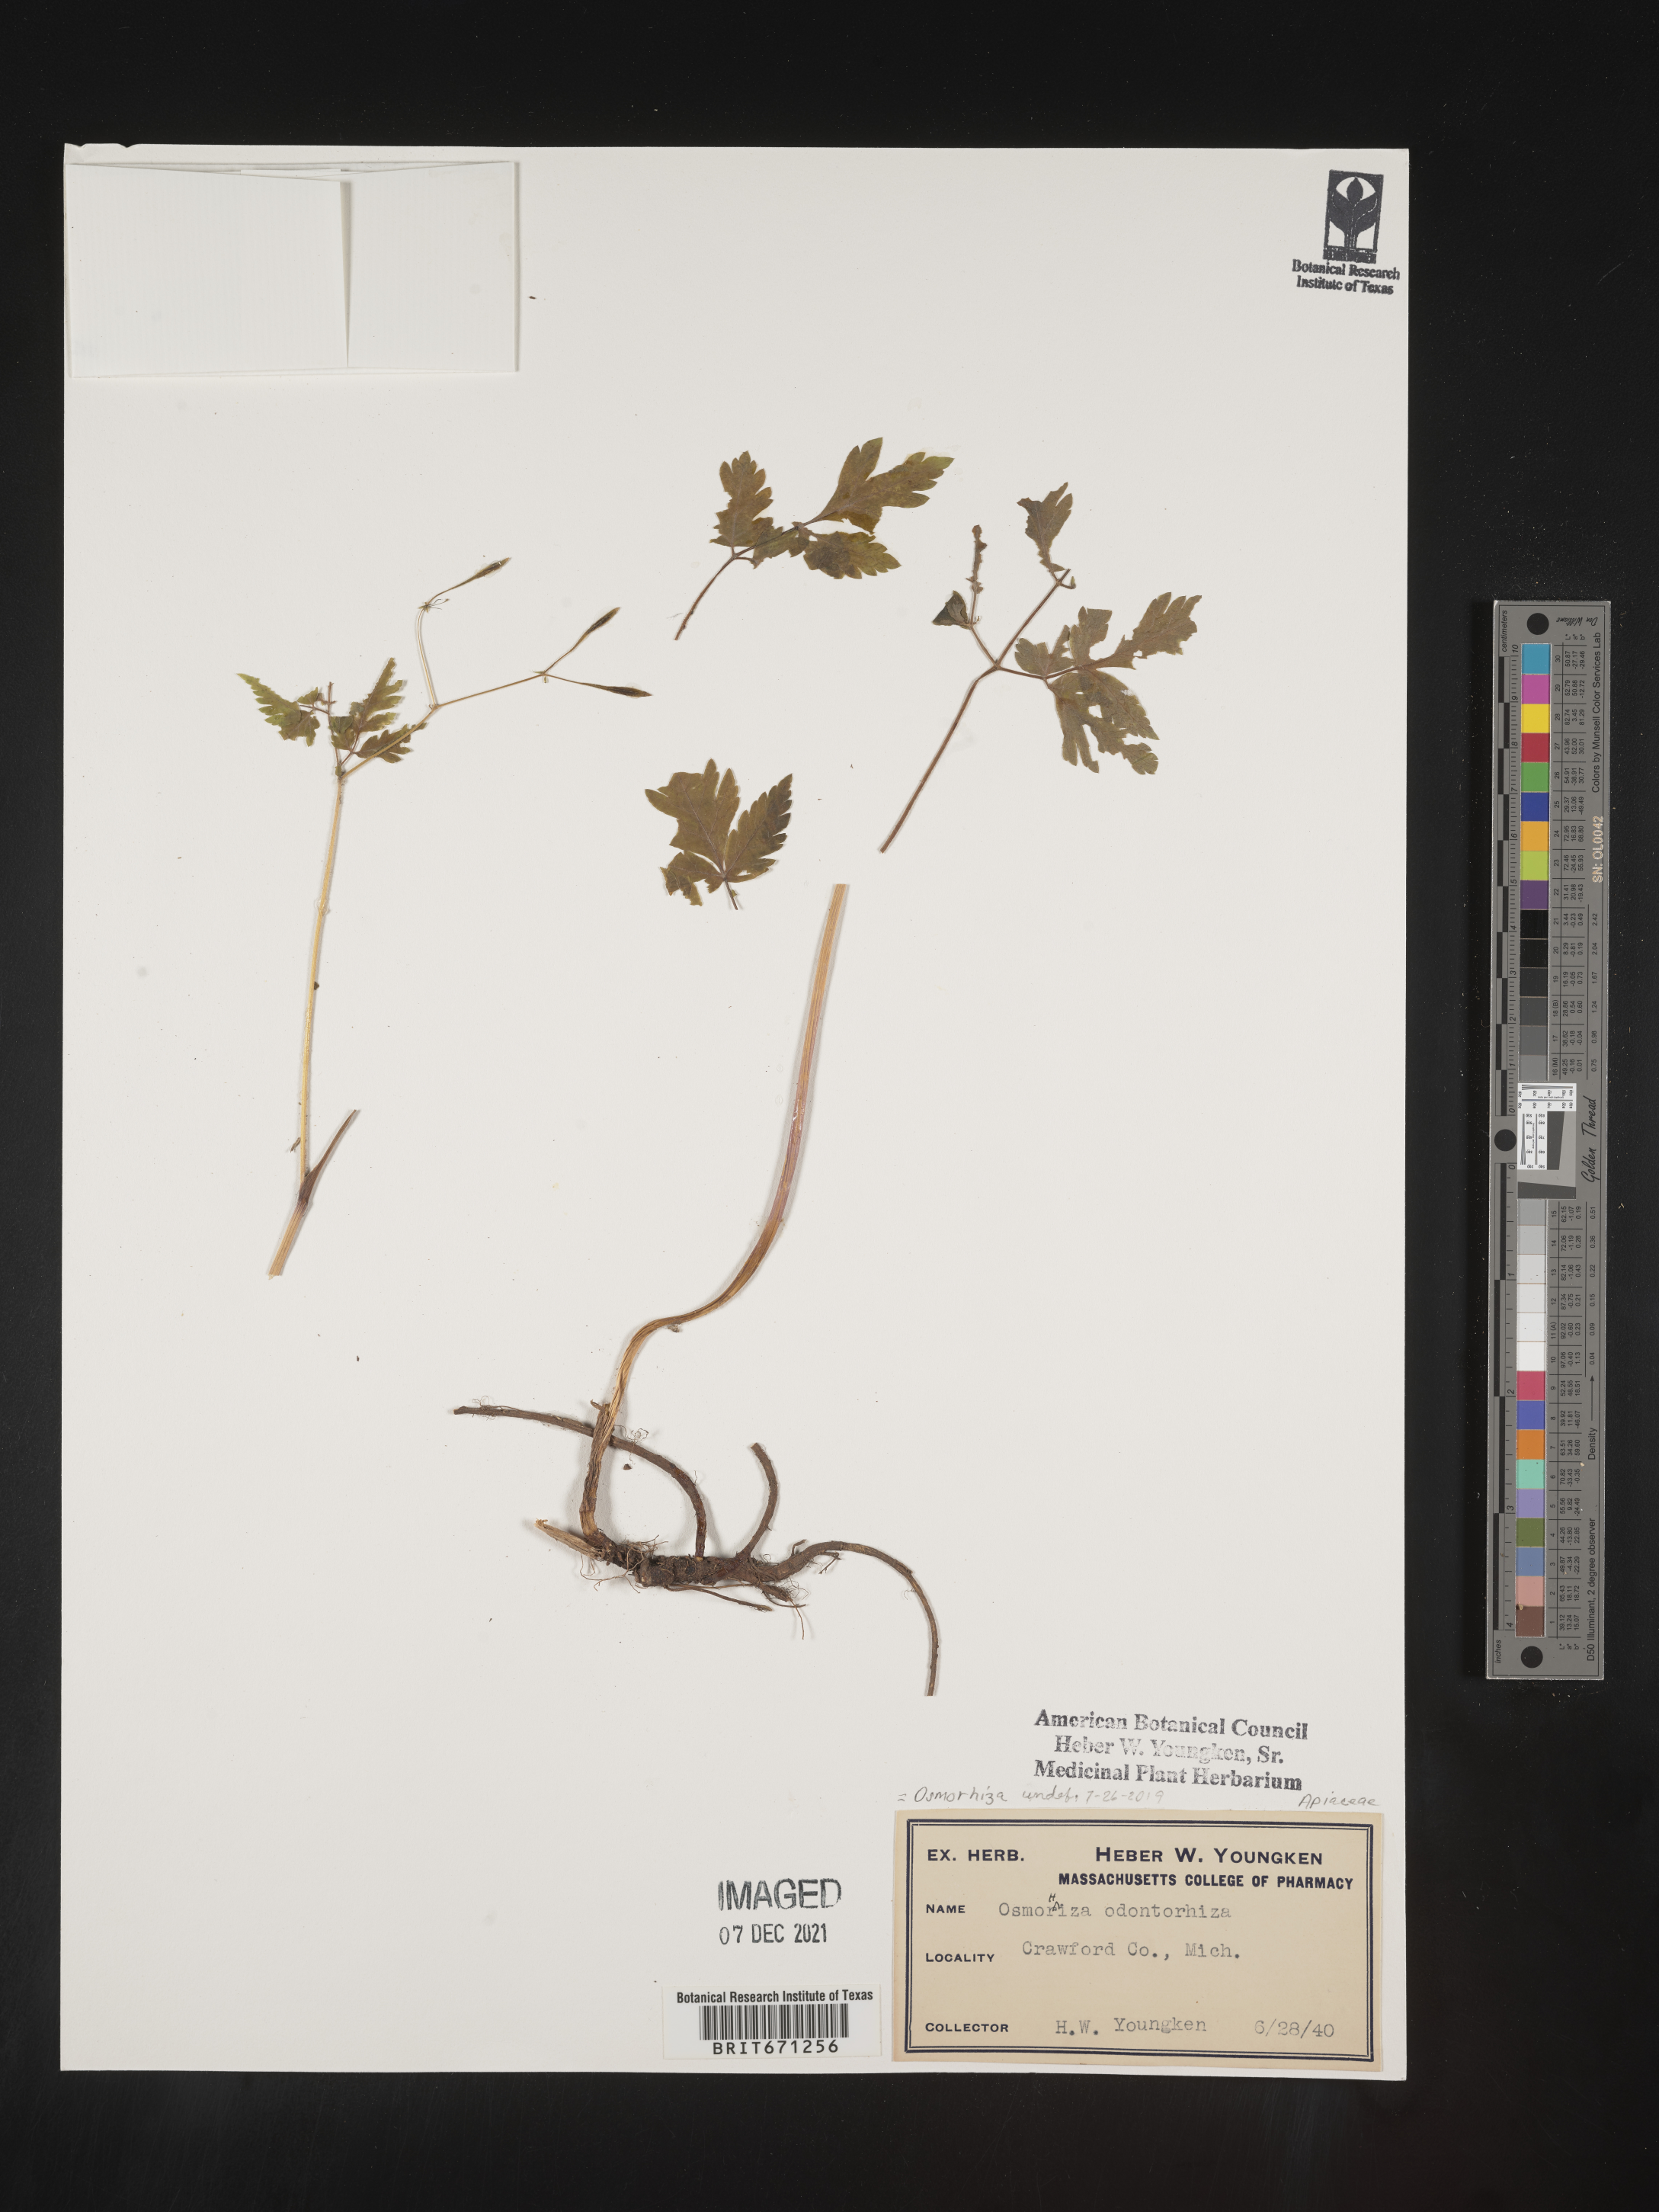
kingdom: Plantae
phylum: Tracheophyta
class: Magnoliopsida
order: Apiales
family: Apiaceae
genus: Osmorhiza
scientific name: Osmorhiza
